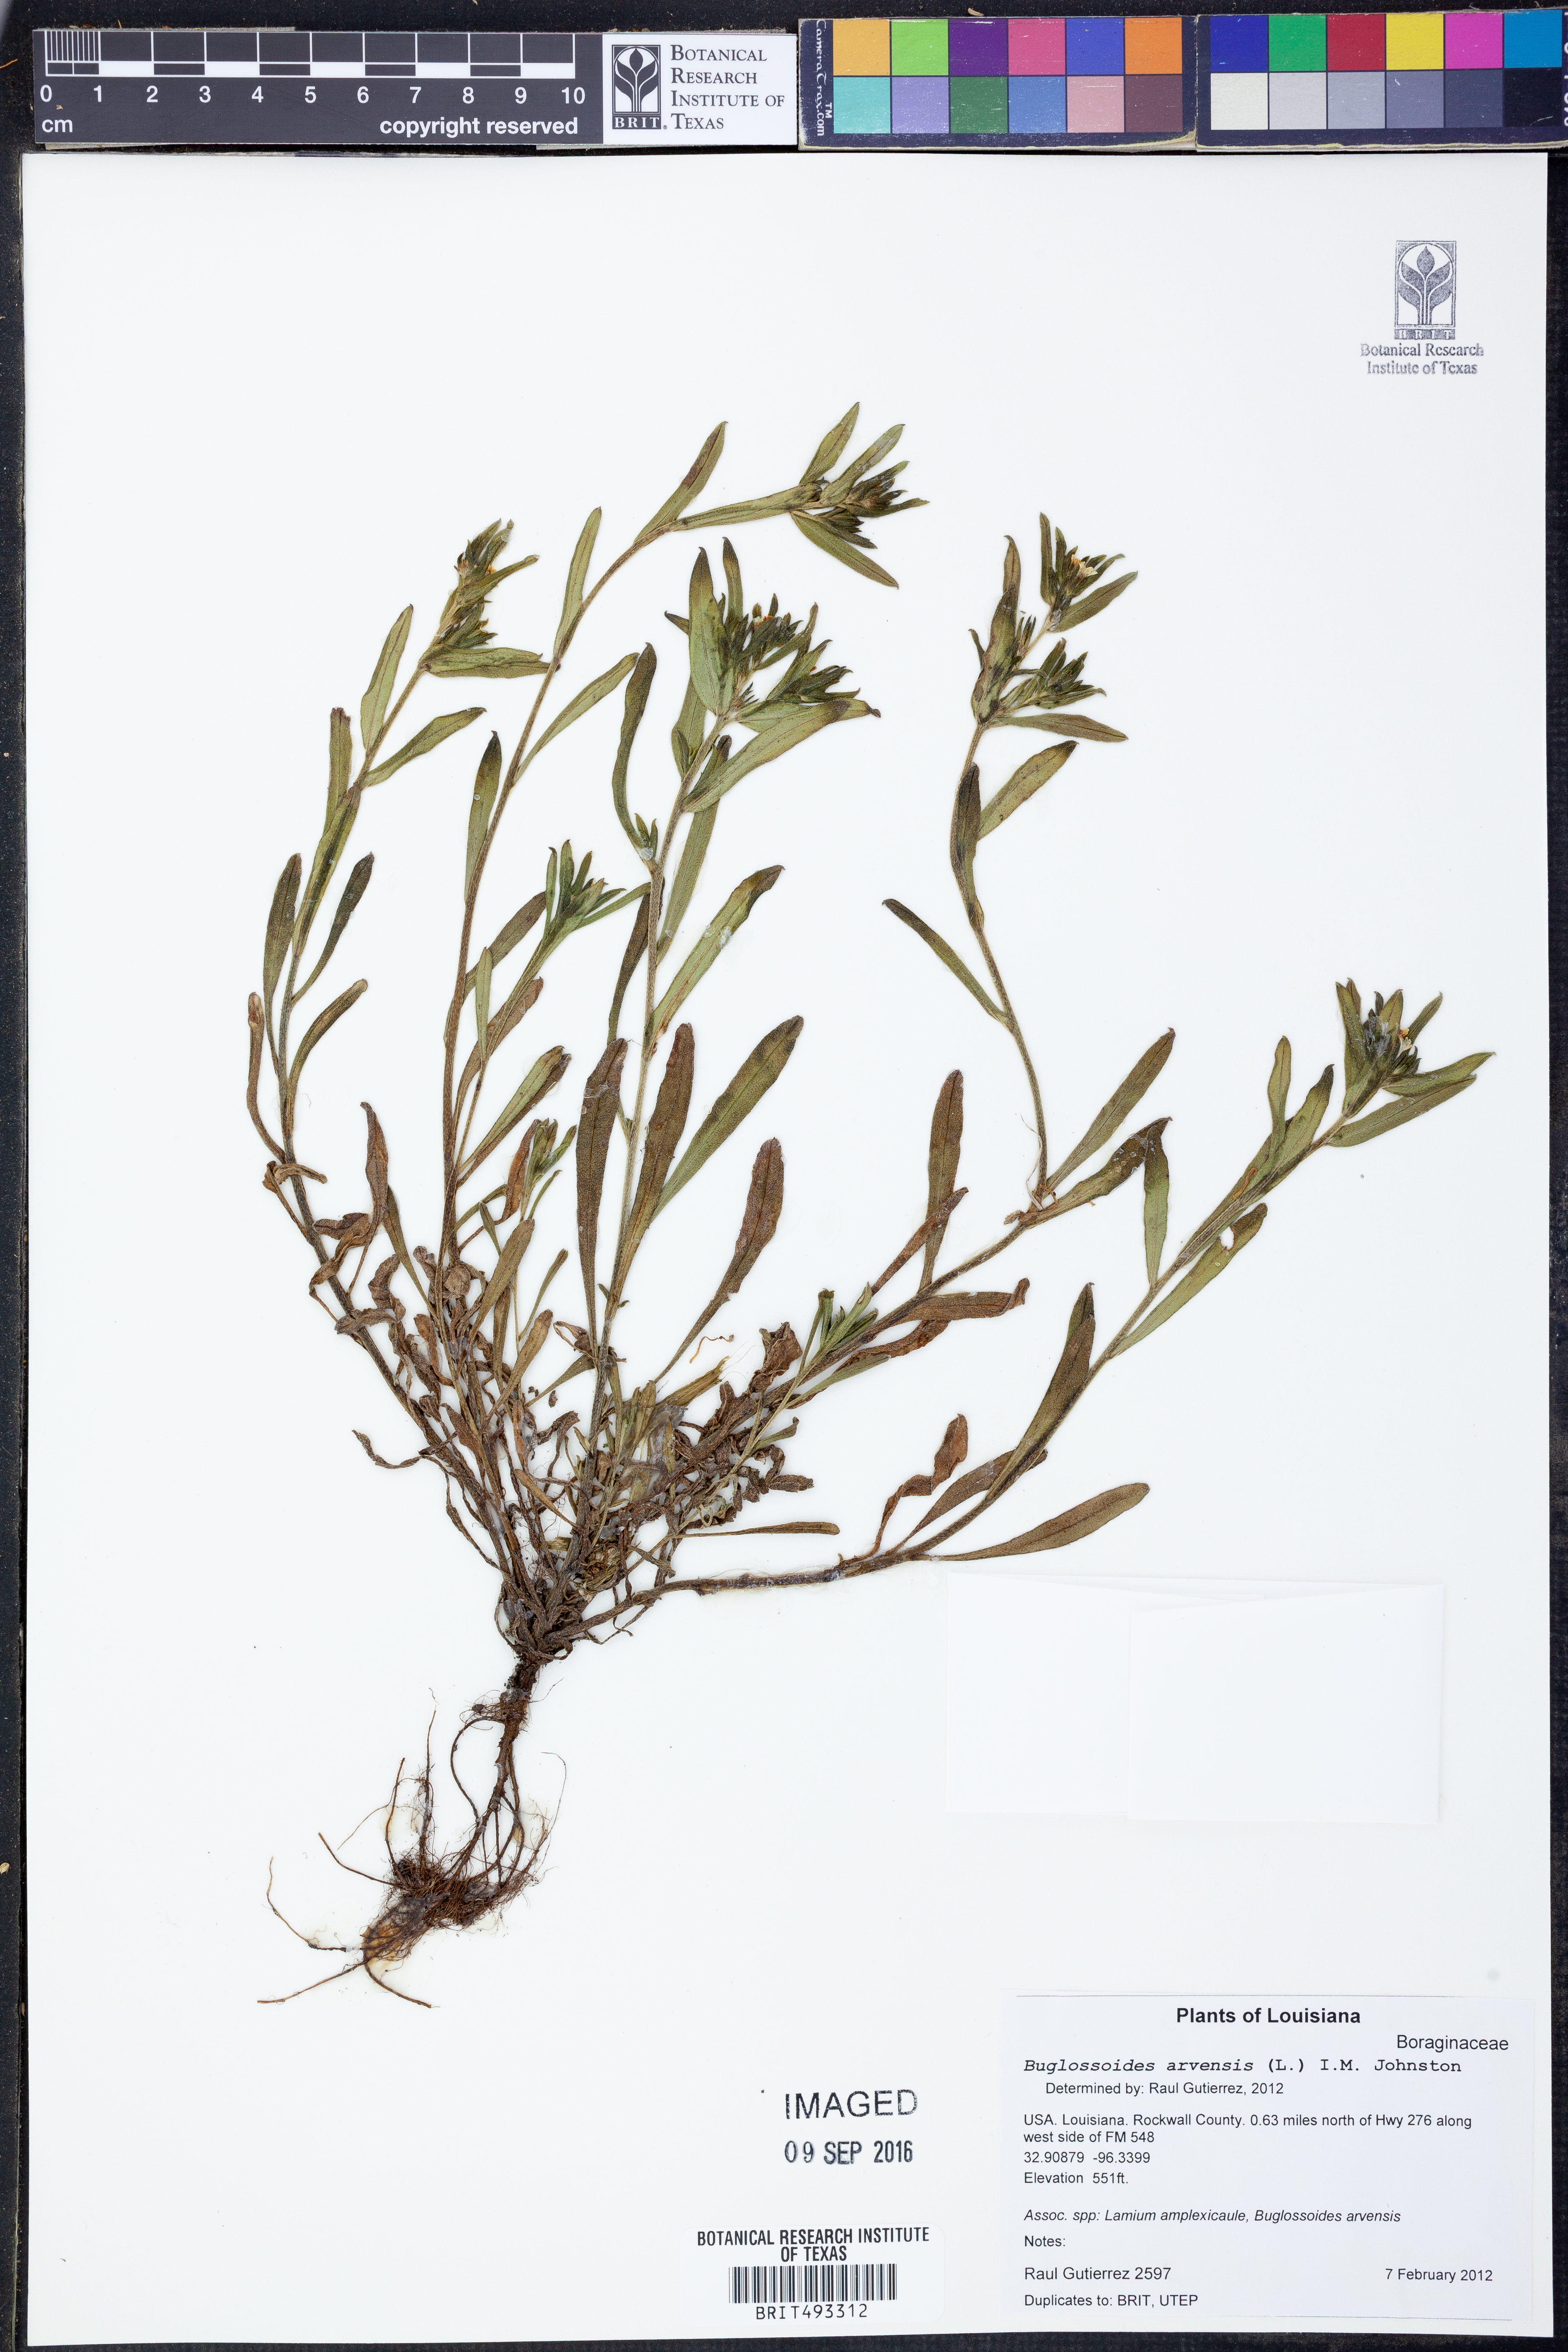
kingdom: Plantae
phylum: Tracheophyta
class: Magnoliopsida
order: Boraginales
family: Boraginaceae
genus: Buglossoides
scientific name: Buglossoides arvensis
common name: Corn gromwell
